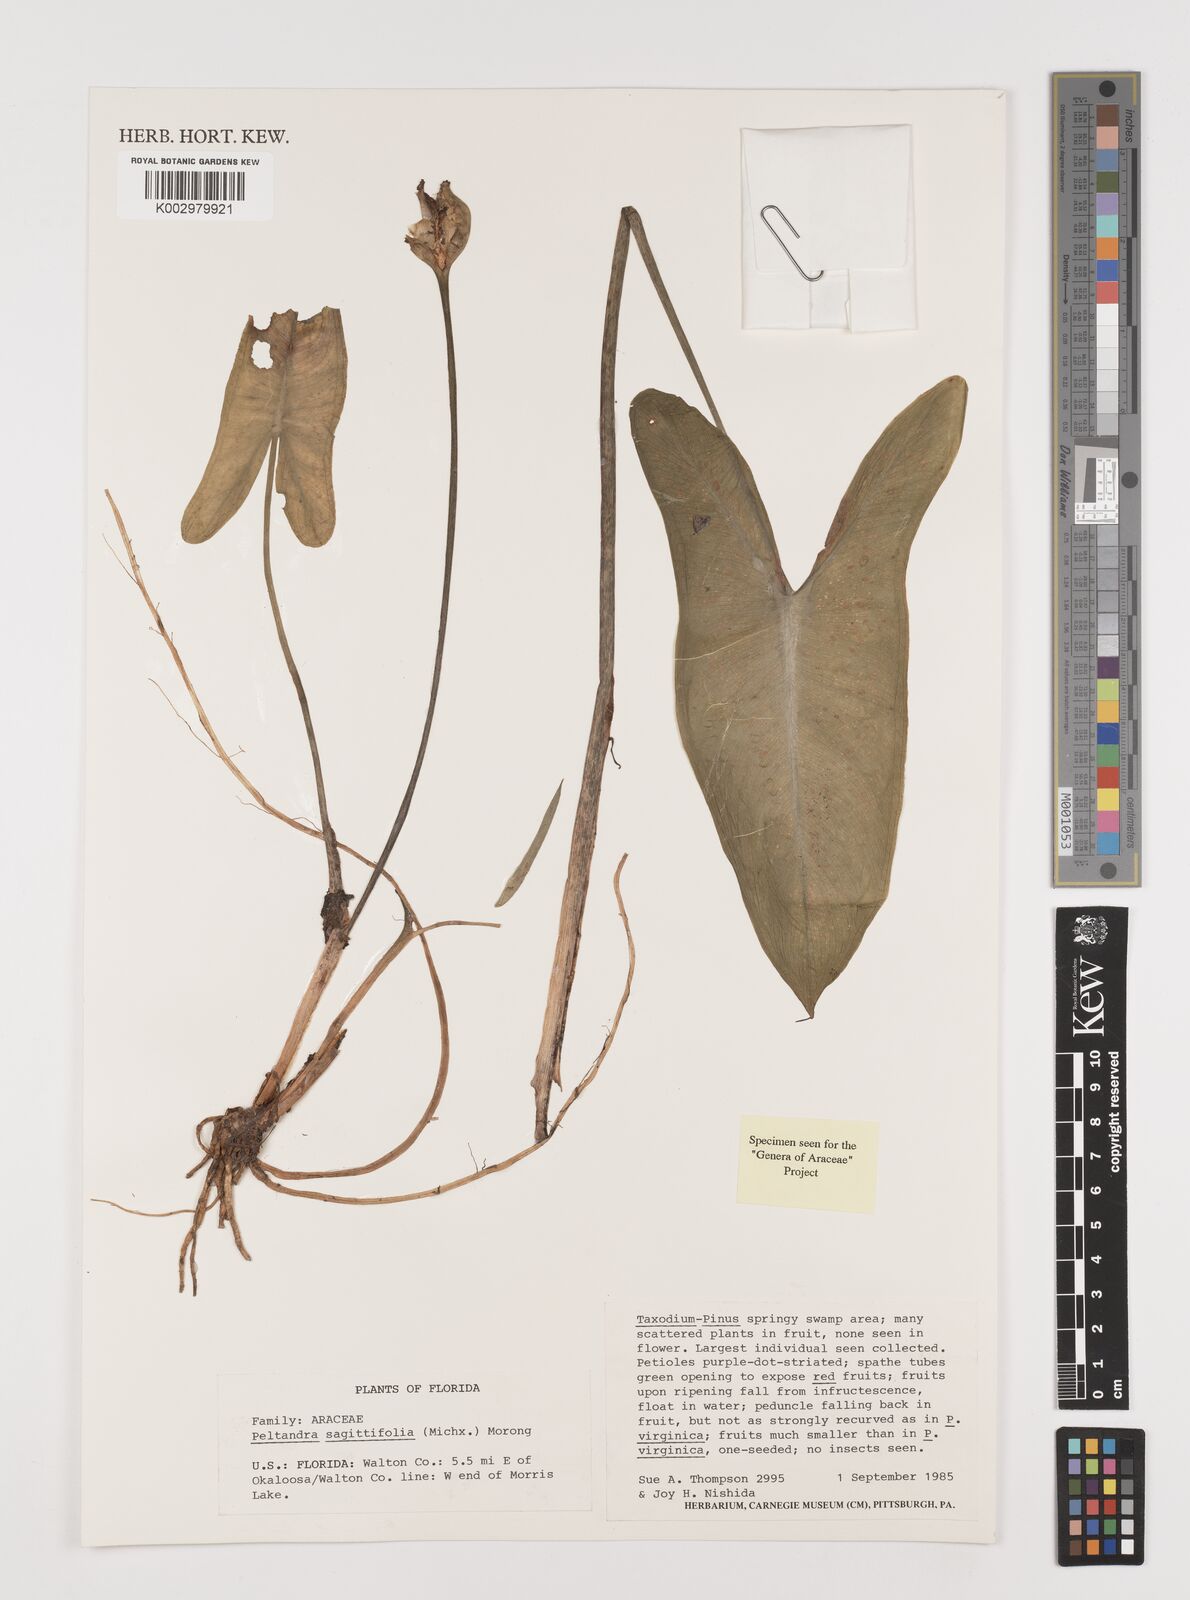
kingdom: Plantae
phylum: Tracheophyta
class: Liliopsida
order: Alismatales
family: Araceae
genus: Peltandra
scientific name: Peltandra sagittifolia
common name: White arrow arum
